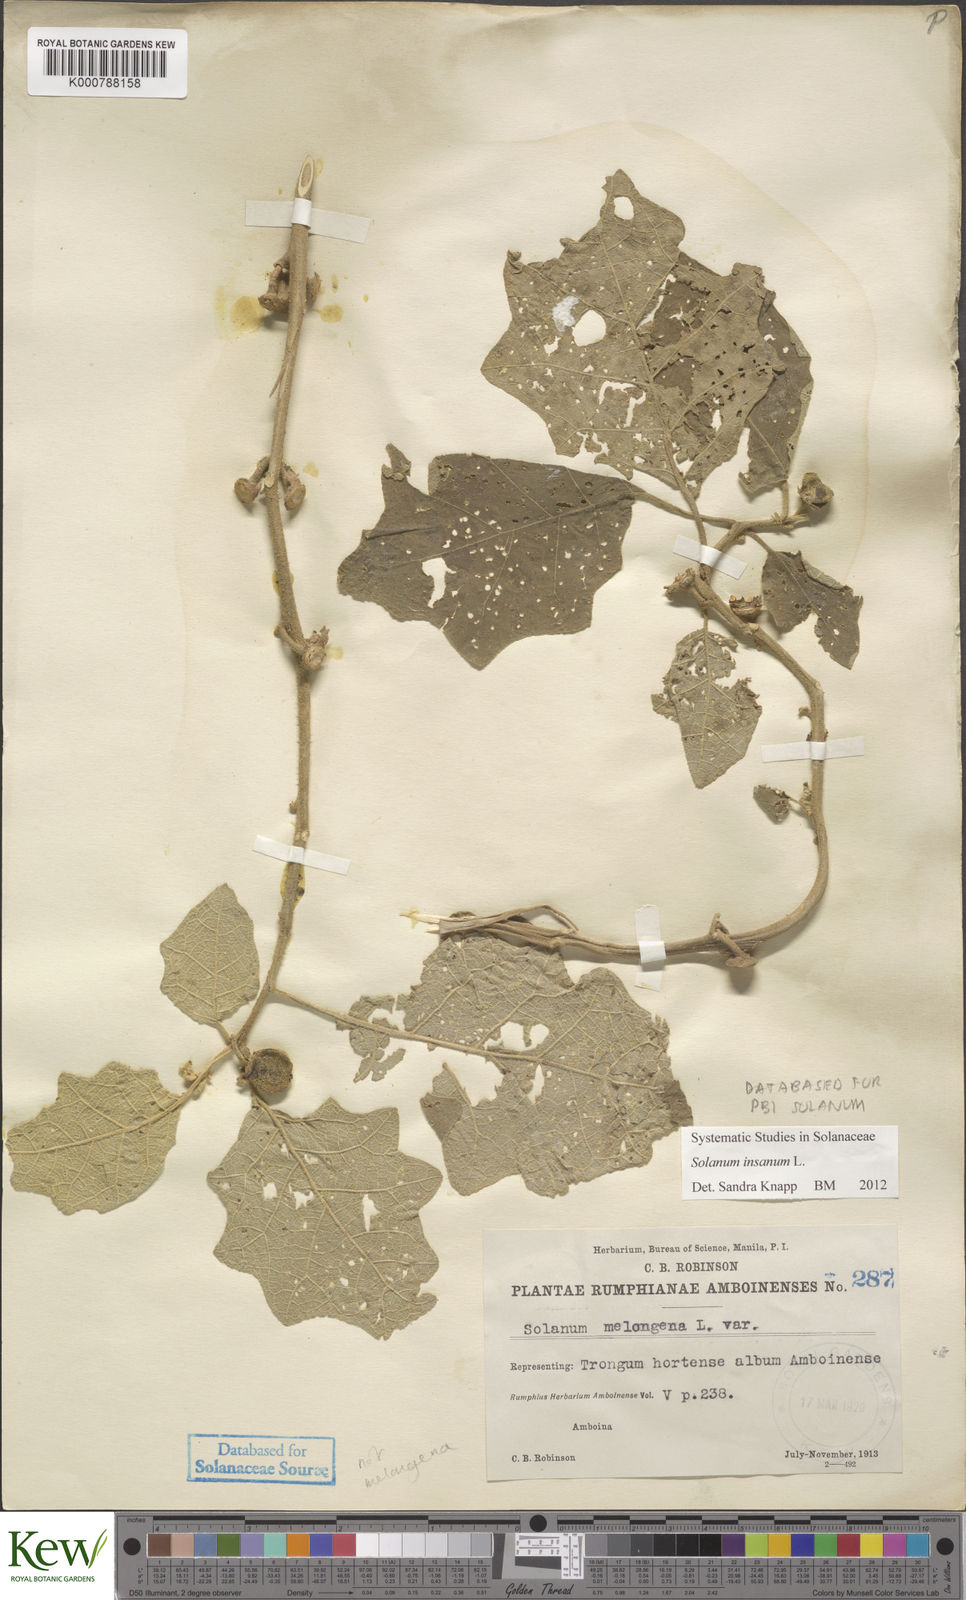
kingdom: Plantae
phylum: Tracheophyta
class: Magnoliopsida
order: Solanales
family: Solanaceae
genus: Solanum
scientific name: Solanum insanum
